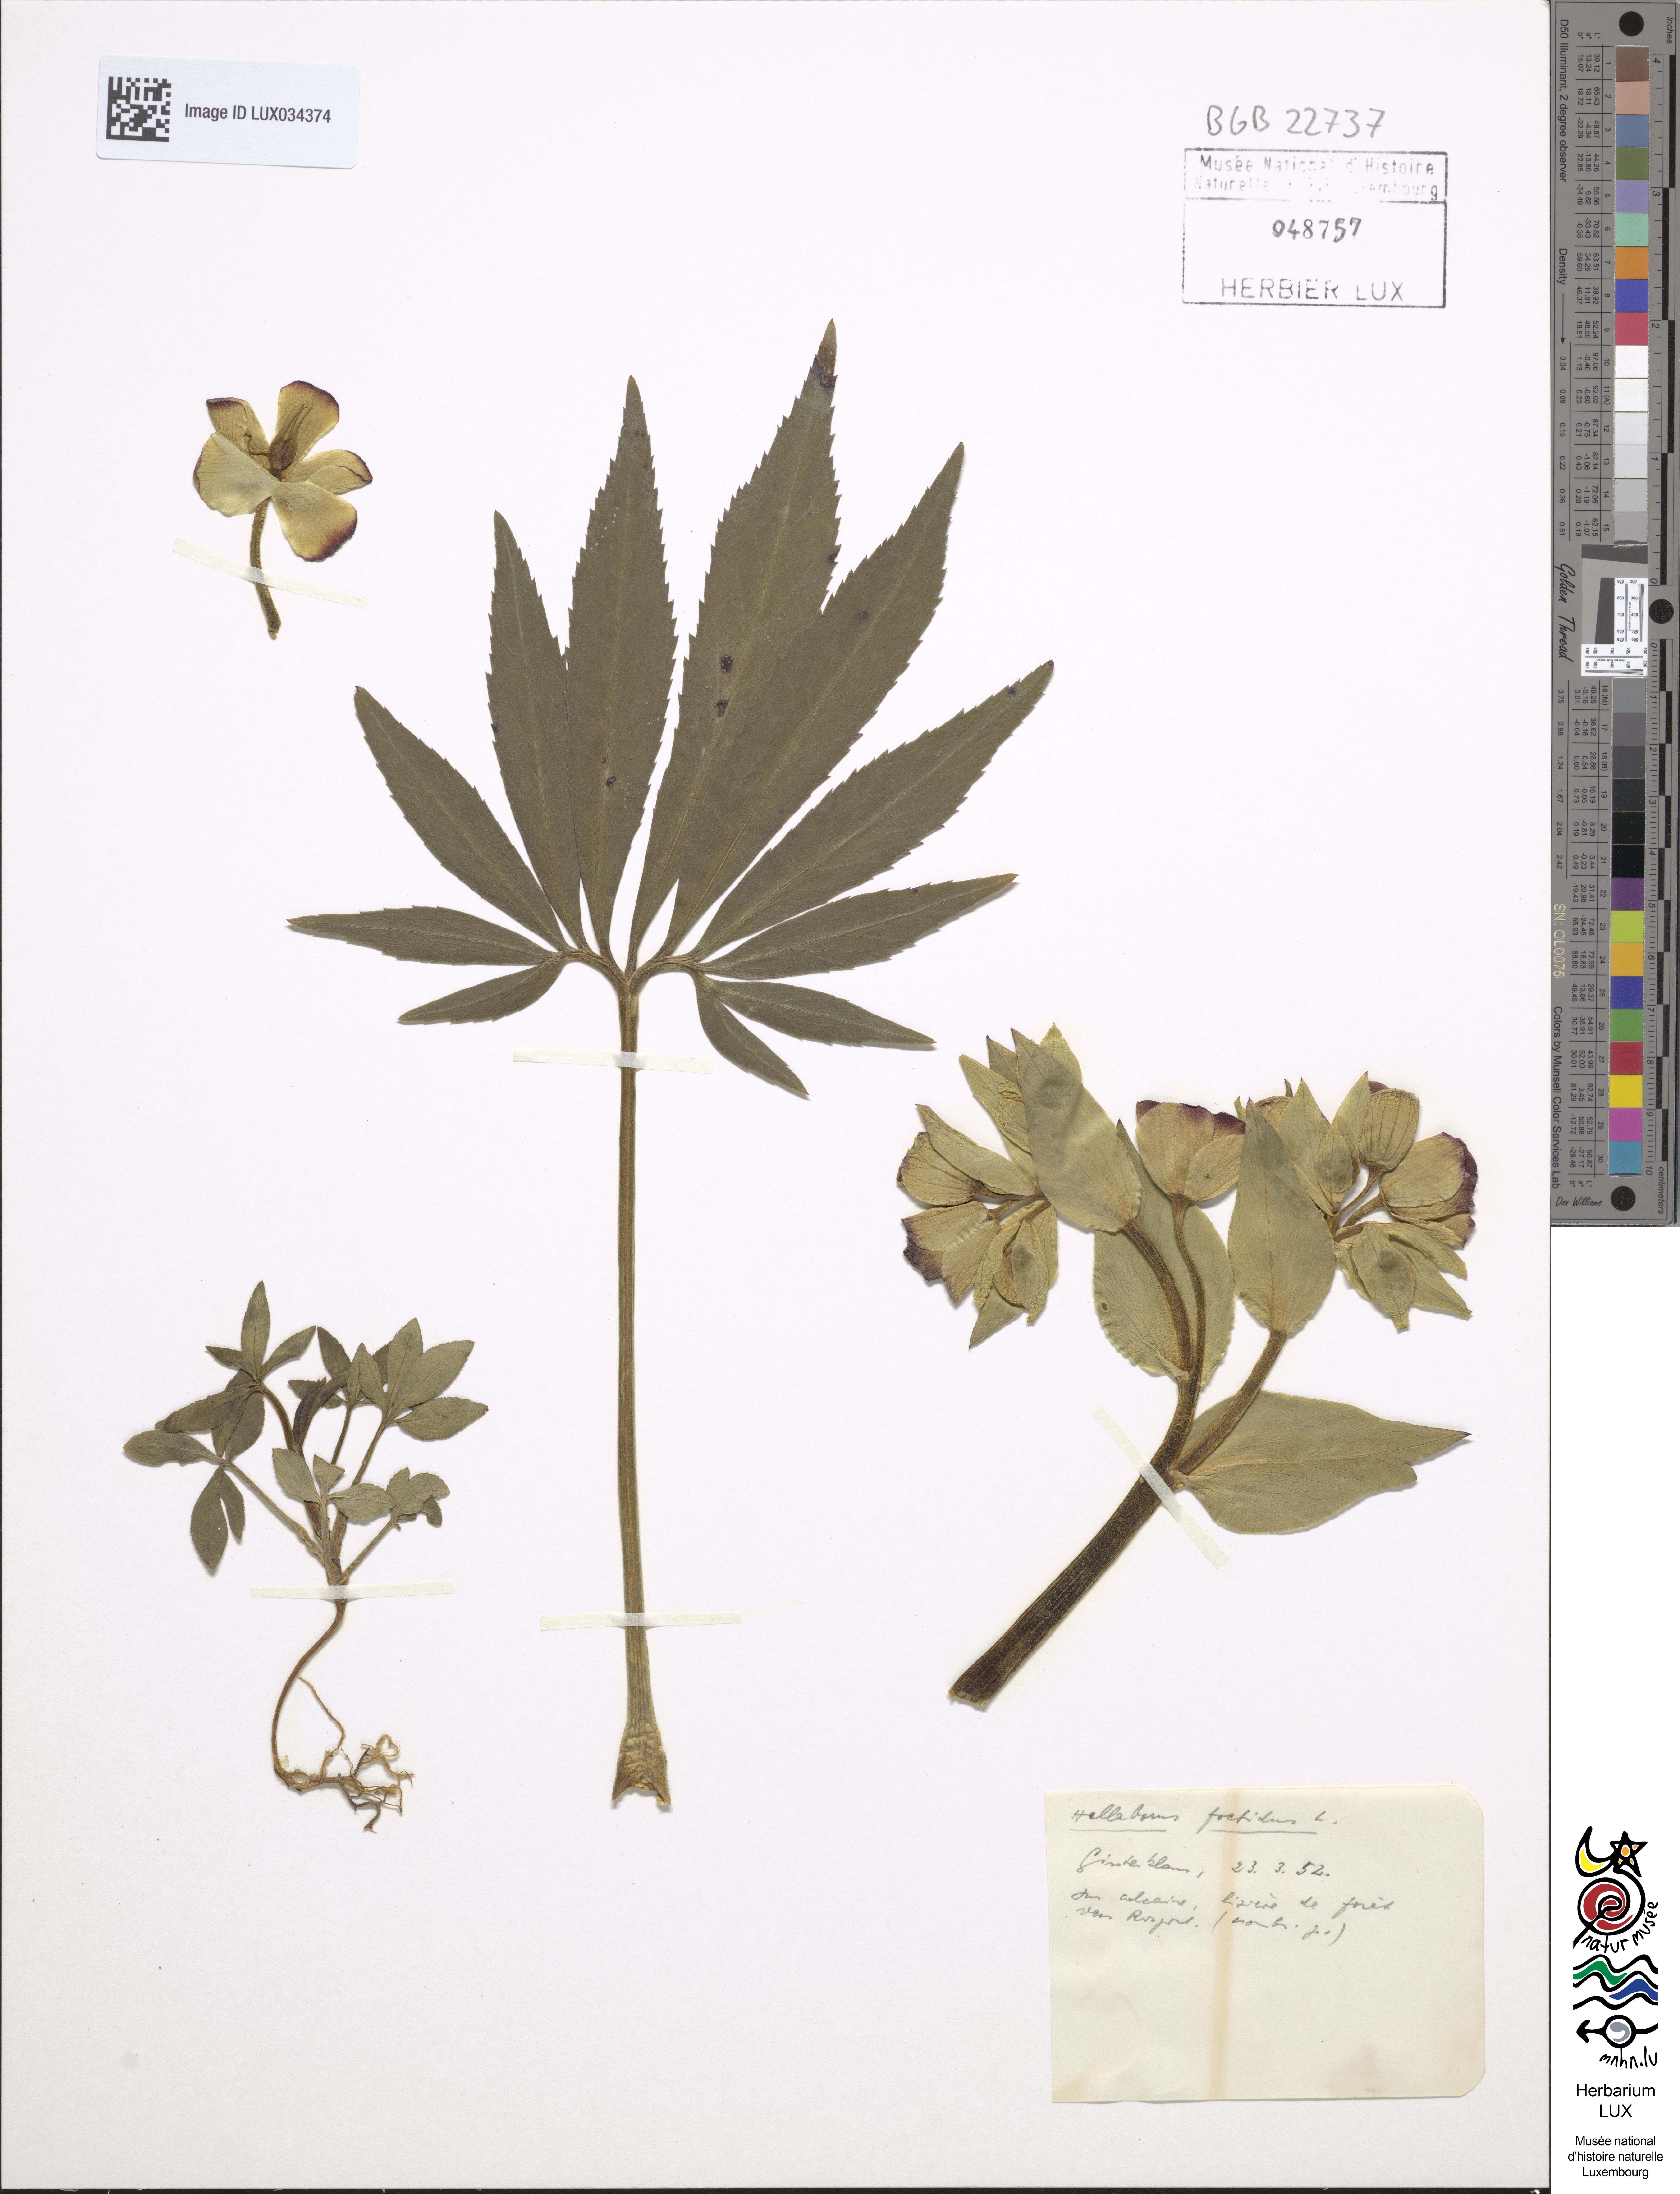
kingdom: Plantae
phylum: Tracheophyta
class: Magnoliopsida
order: Ranunculales
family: Ranunculaceae
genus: Helleborus
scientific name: Helleborus foetidus
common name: Stinking hellebore
